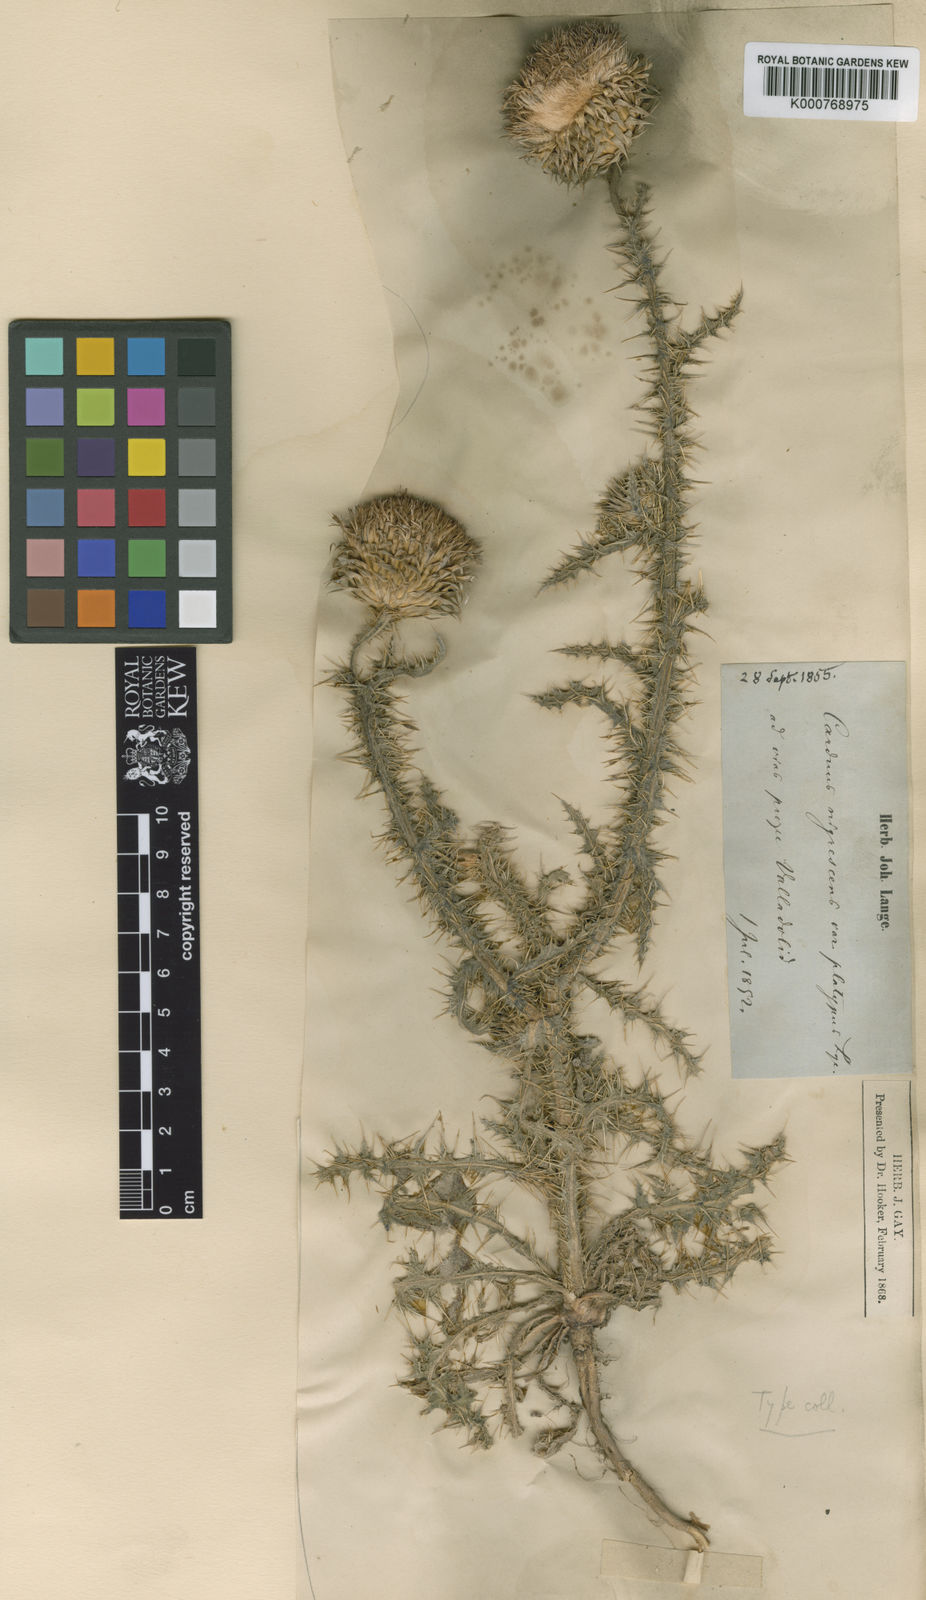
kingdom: Plantae
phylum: Tracheophyta
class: Magnoliopsida
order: Asterales
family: Asteraceae
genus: Carduus
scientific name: Carduus platypus
